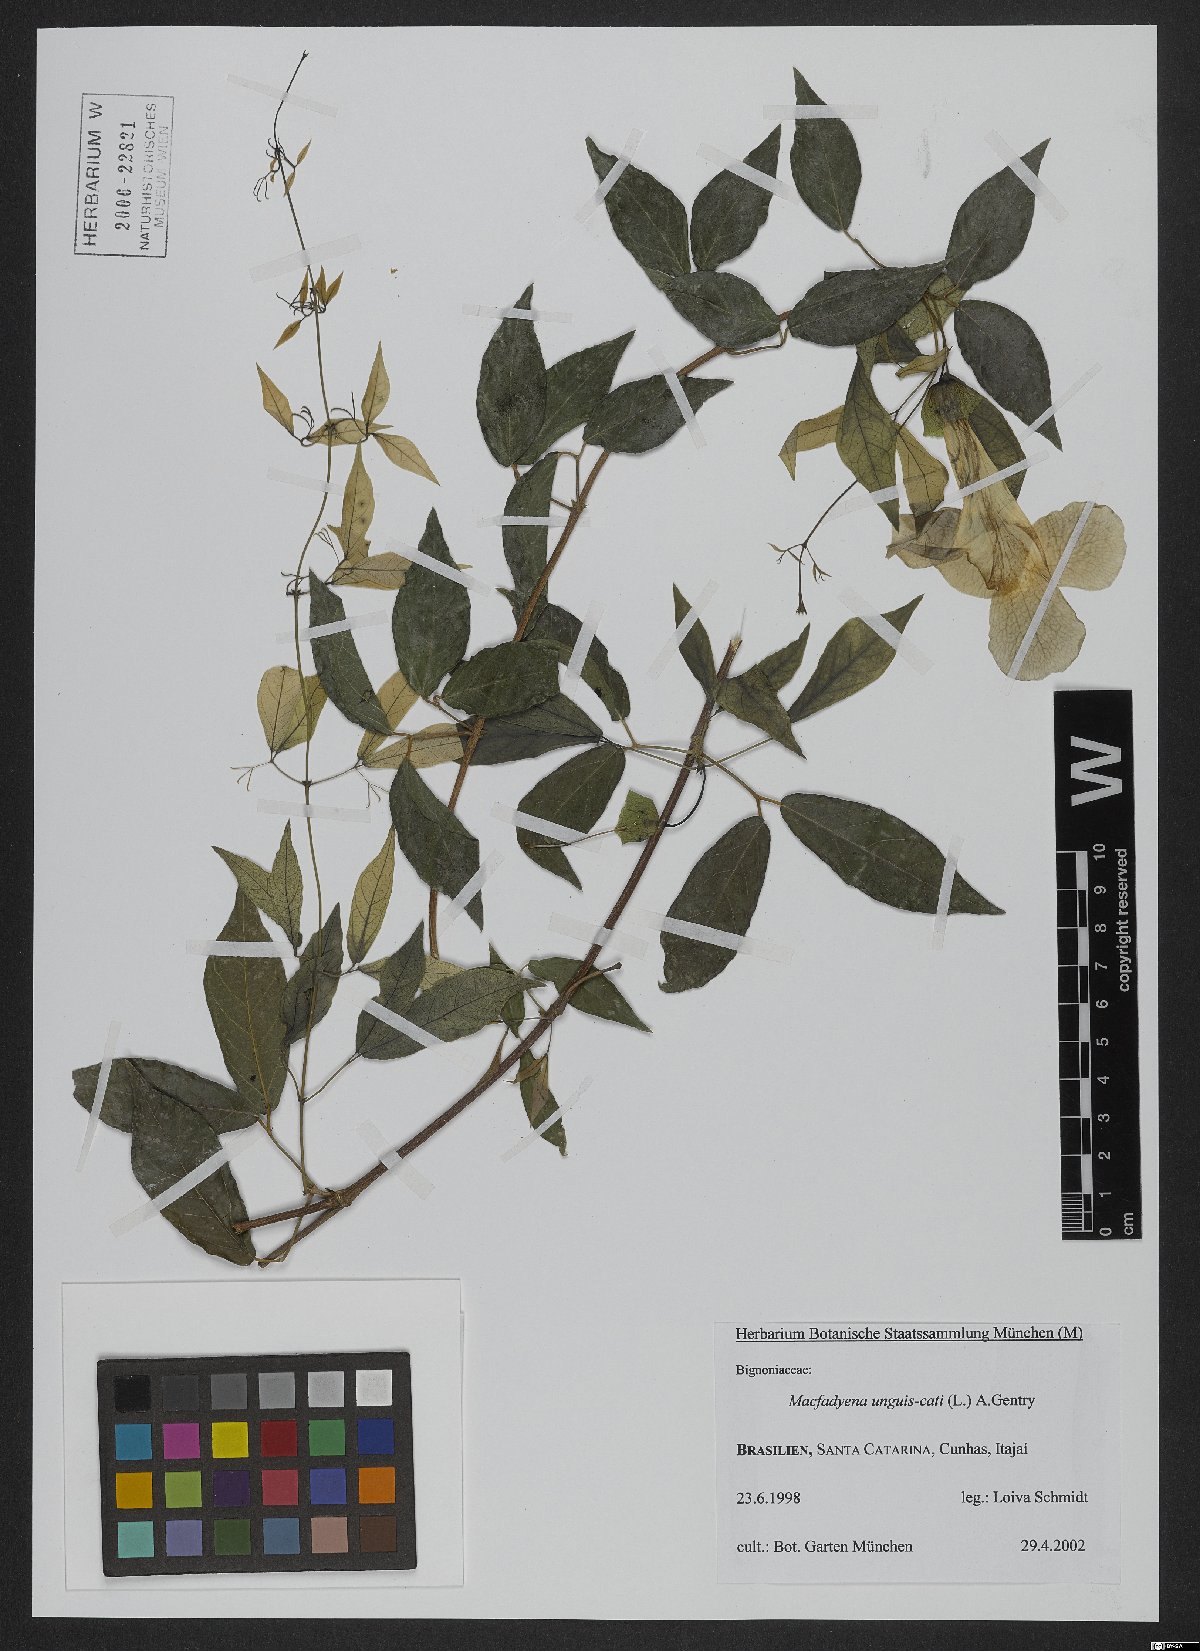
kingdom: Plantae
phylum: Tracheophyta
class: Magnoliopsida
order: Lamiales
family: Bignoniaceae
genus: Dolichandra
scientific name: Dolichandra unguis-cati
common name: Catclaw vine
